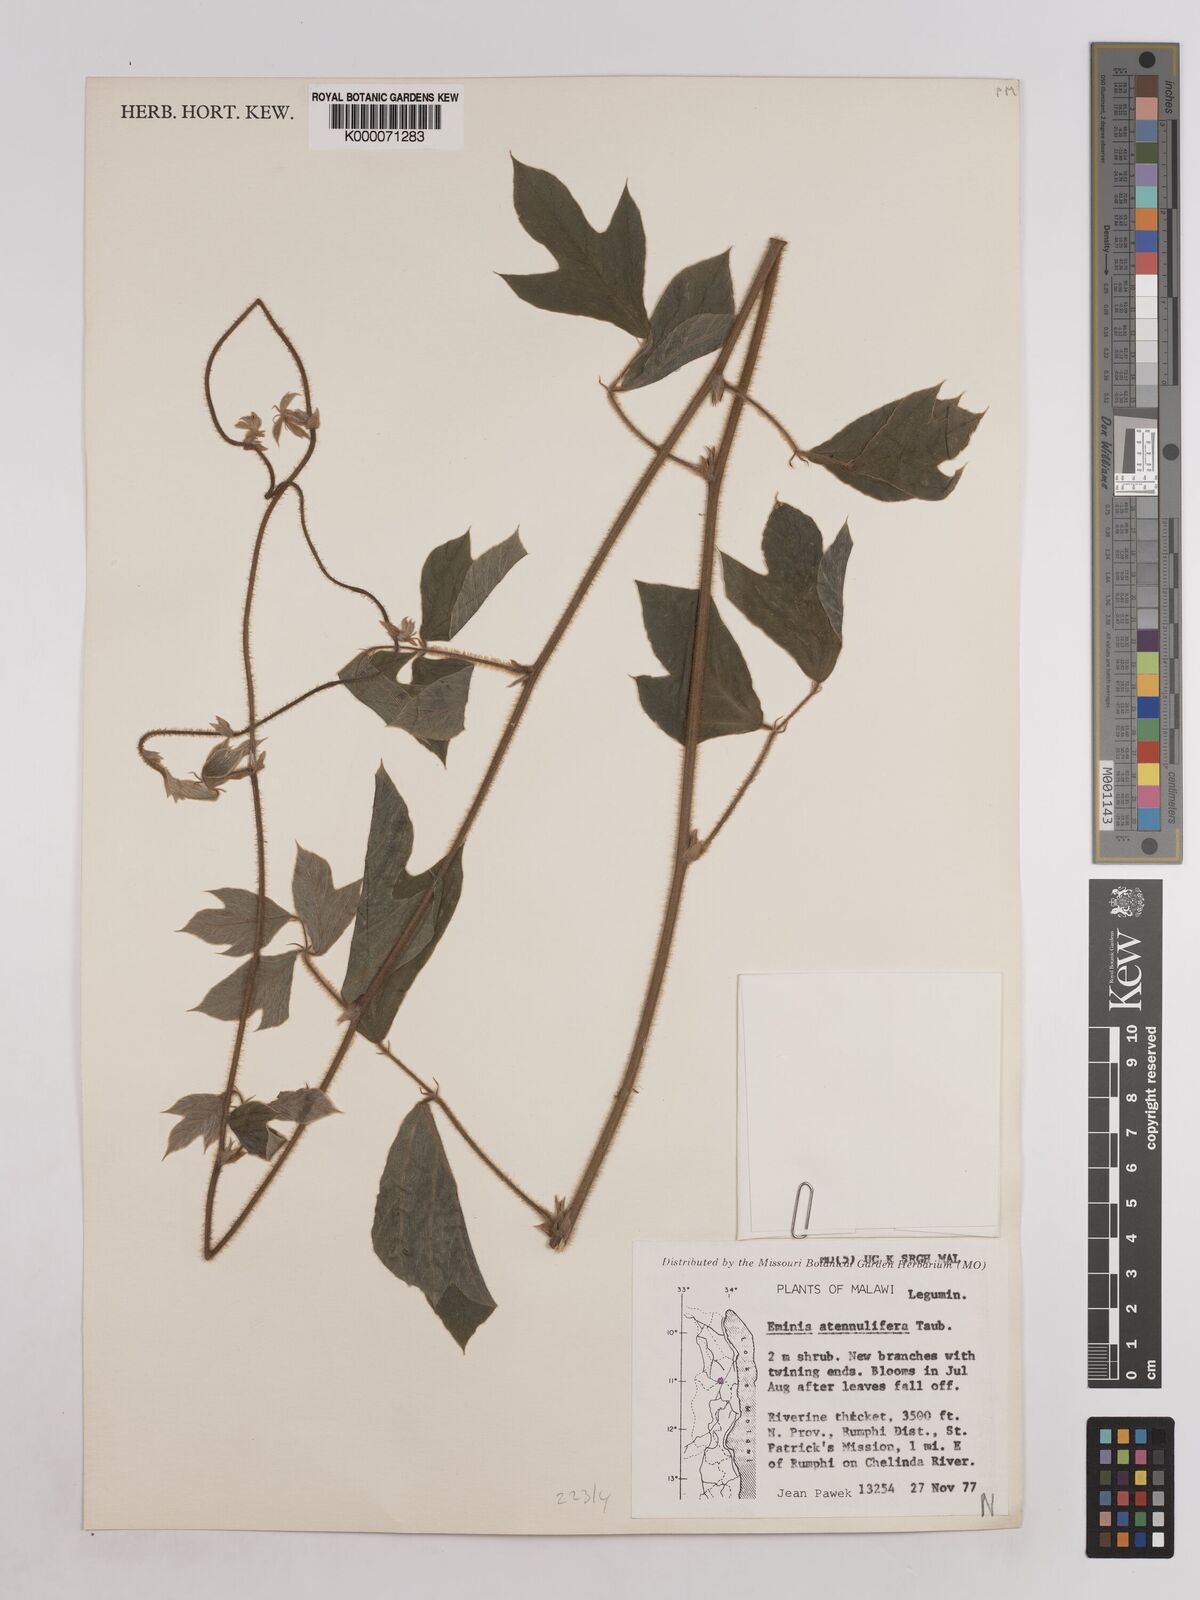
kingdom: Plantae
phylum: Tracheophyta
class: Magnoliopsida
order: Fabales
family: Fabaceae
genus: Eminia
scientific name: Eminia antennulifera
